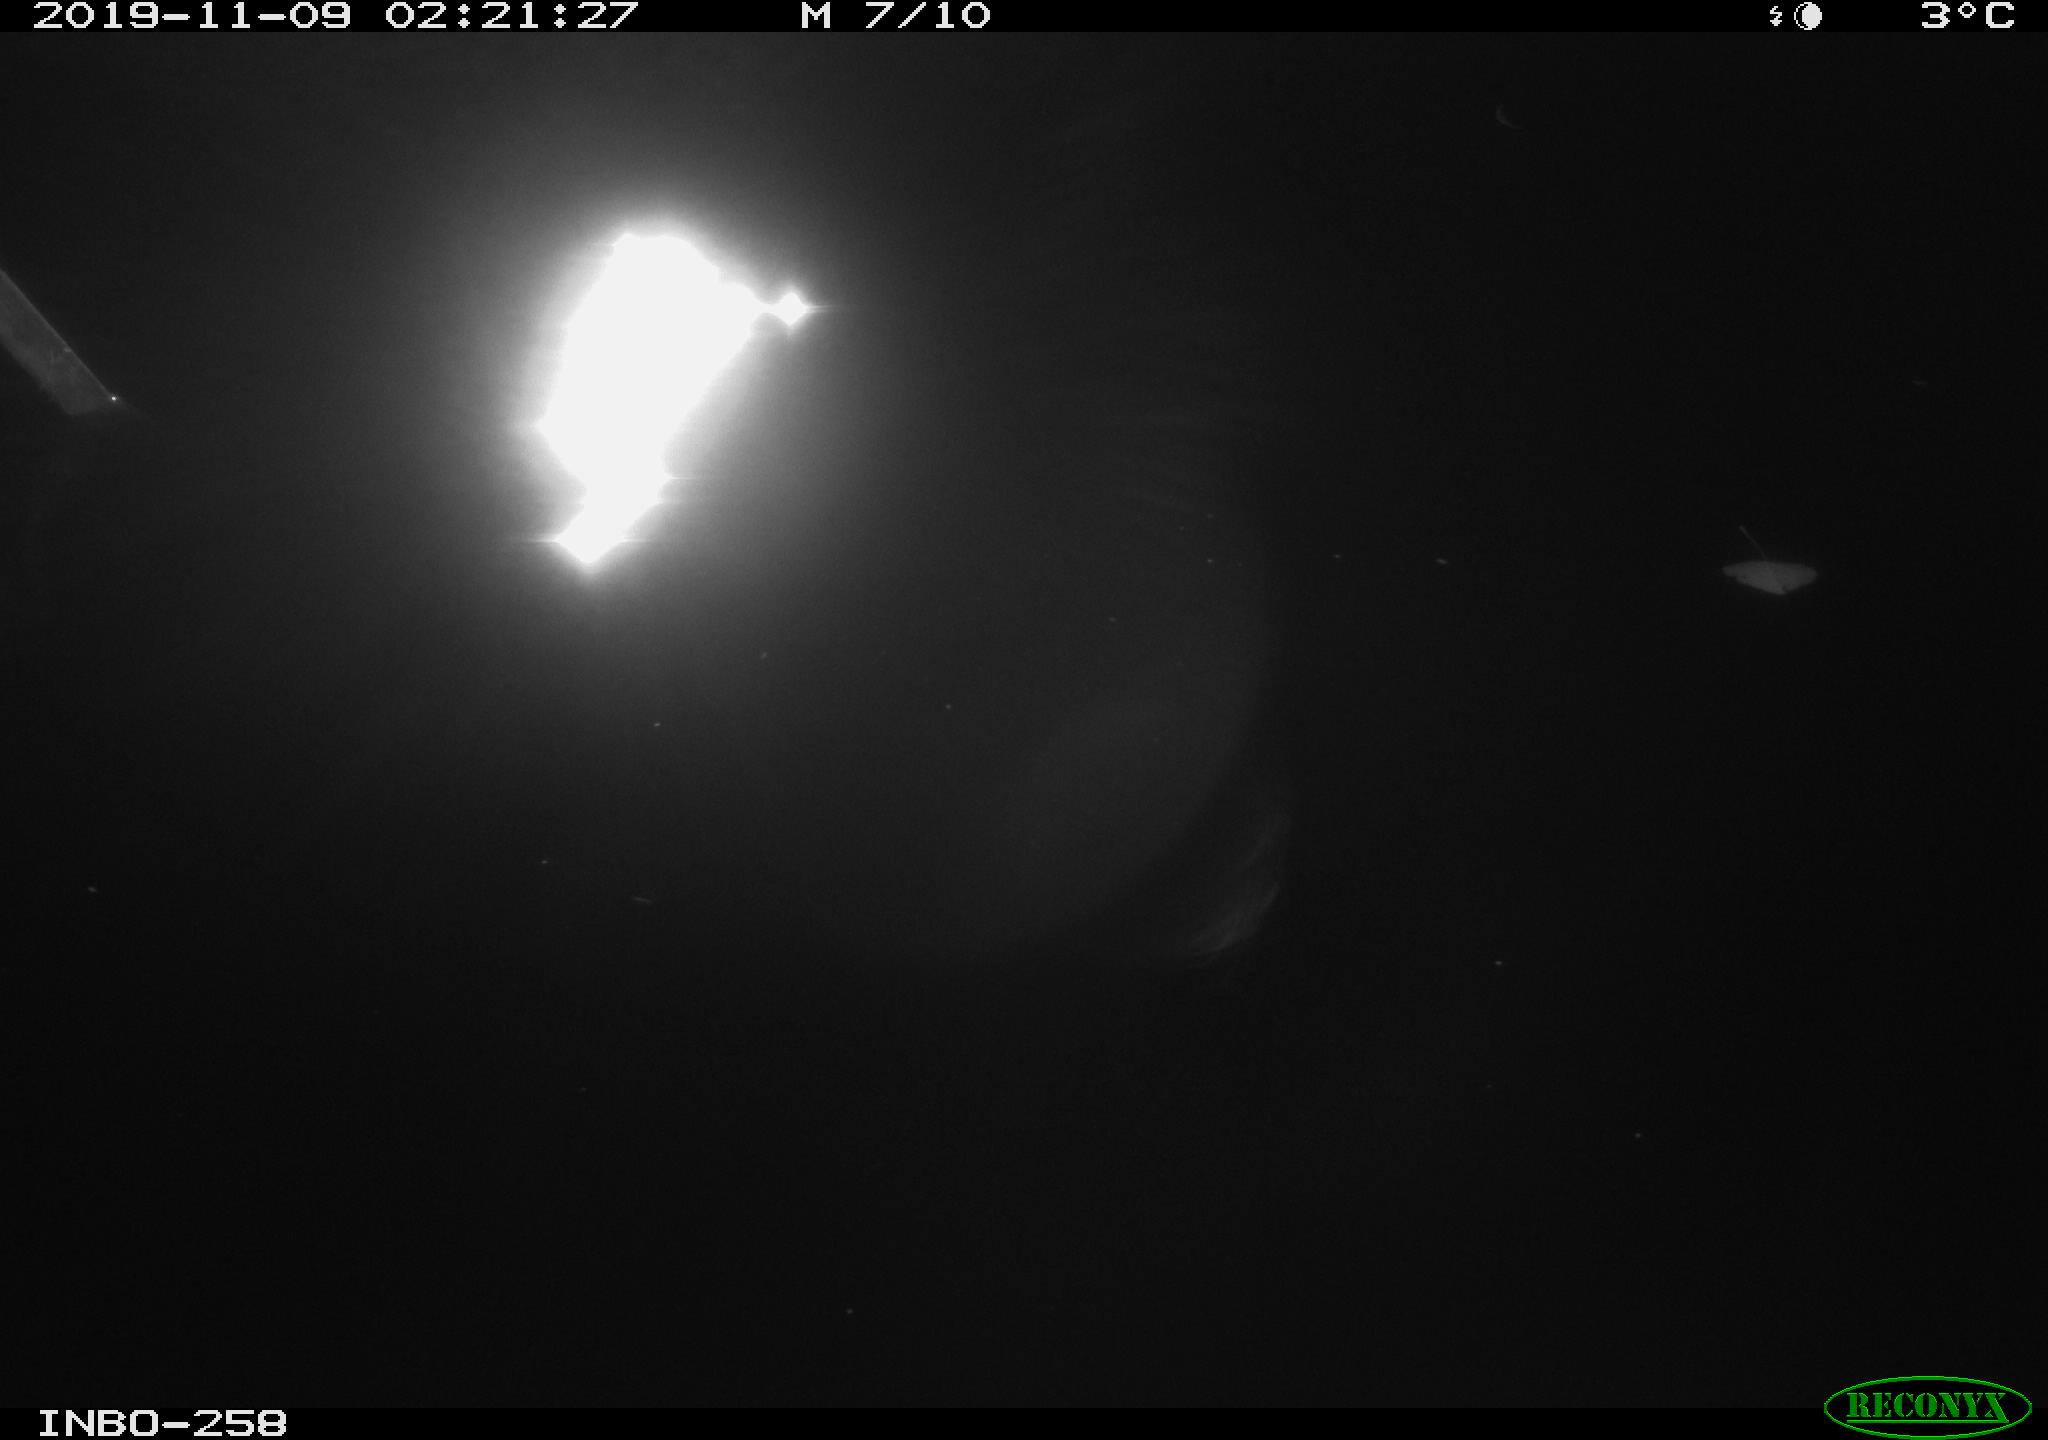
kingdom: Animalia
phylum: Chordata
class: Aves
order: Anseriformes
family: Anatidae
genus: Anas
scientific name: Anas platyrhynchos
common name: Mallard
